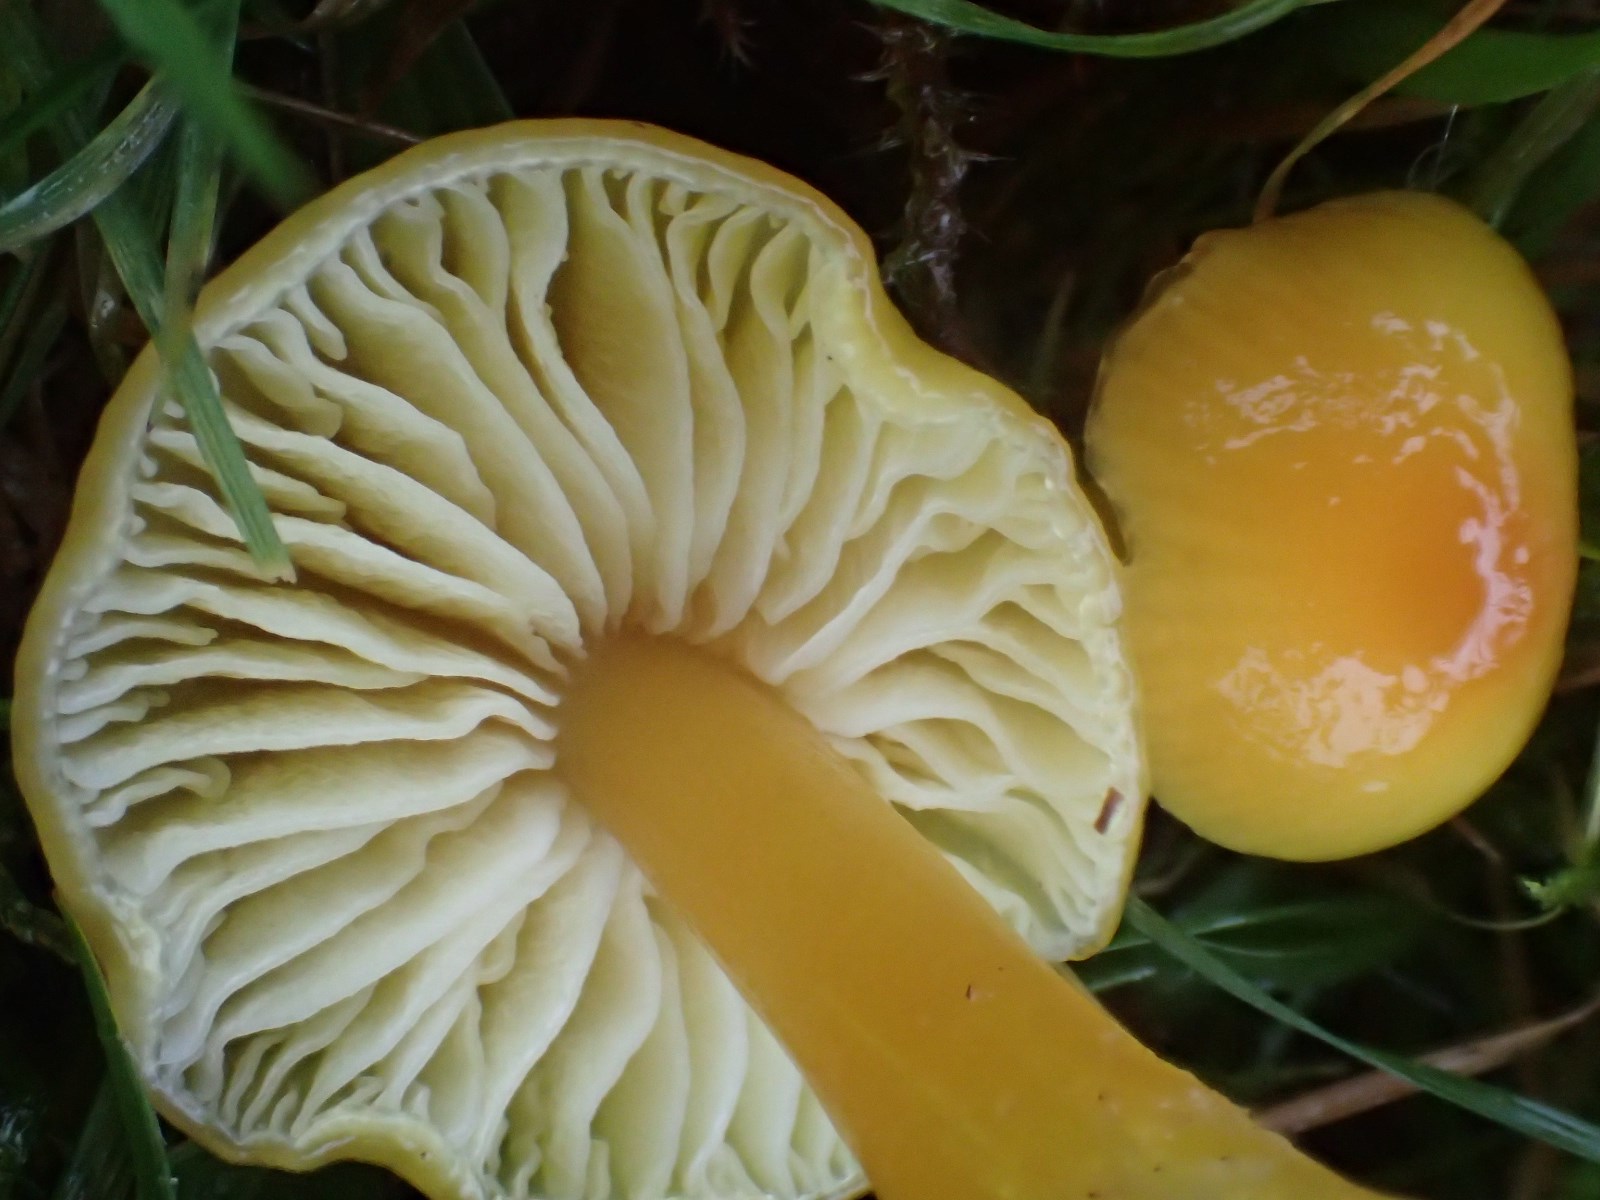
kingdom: Fungi
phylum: Basidiomycota
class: Agaricomycetes
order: Agaricales
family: Hygrophoraceae
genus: Hygrocybe
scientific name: Hygrocybe ceracea
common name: voksgul vokshat
